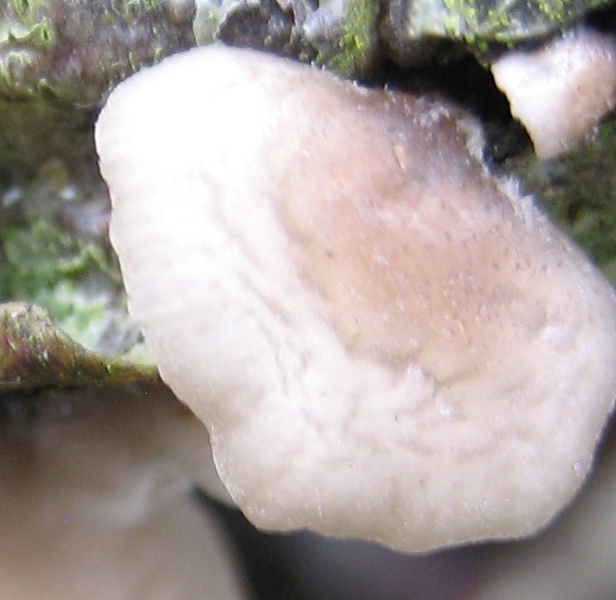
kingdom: Fungi
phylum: Basidiomycota
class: Agaricomycetes
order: Agaricales
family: Pleurotaceae
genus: Hohenbuehelia
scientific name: Hohenbuehelia
